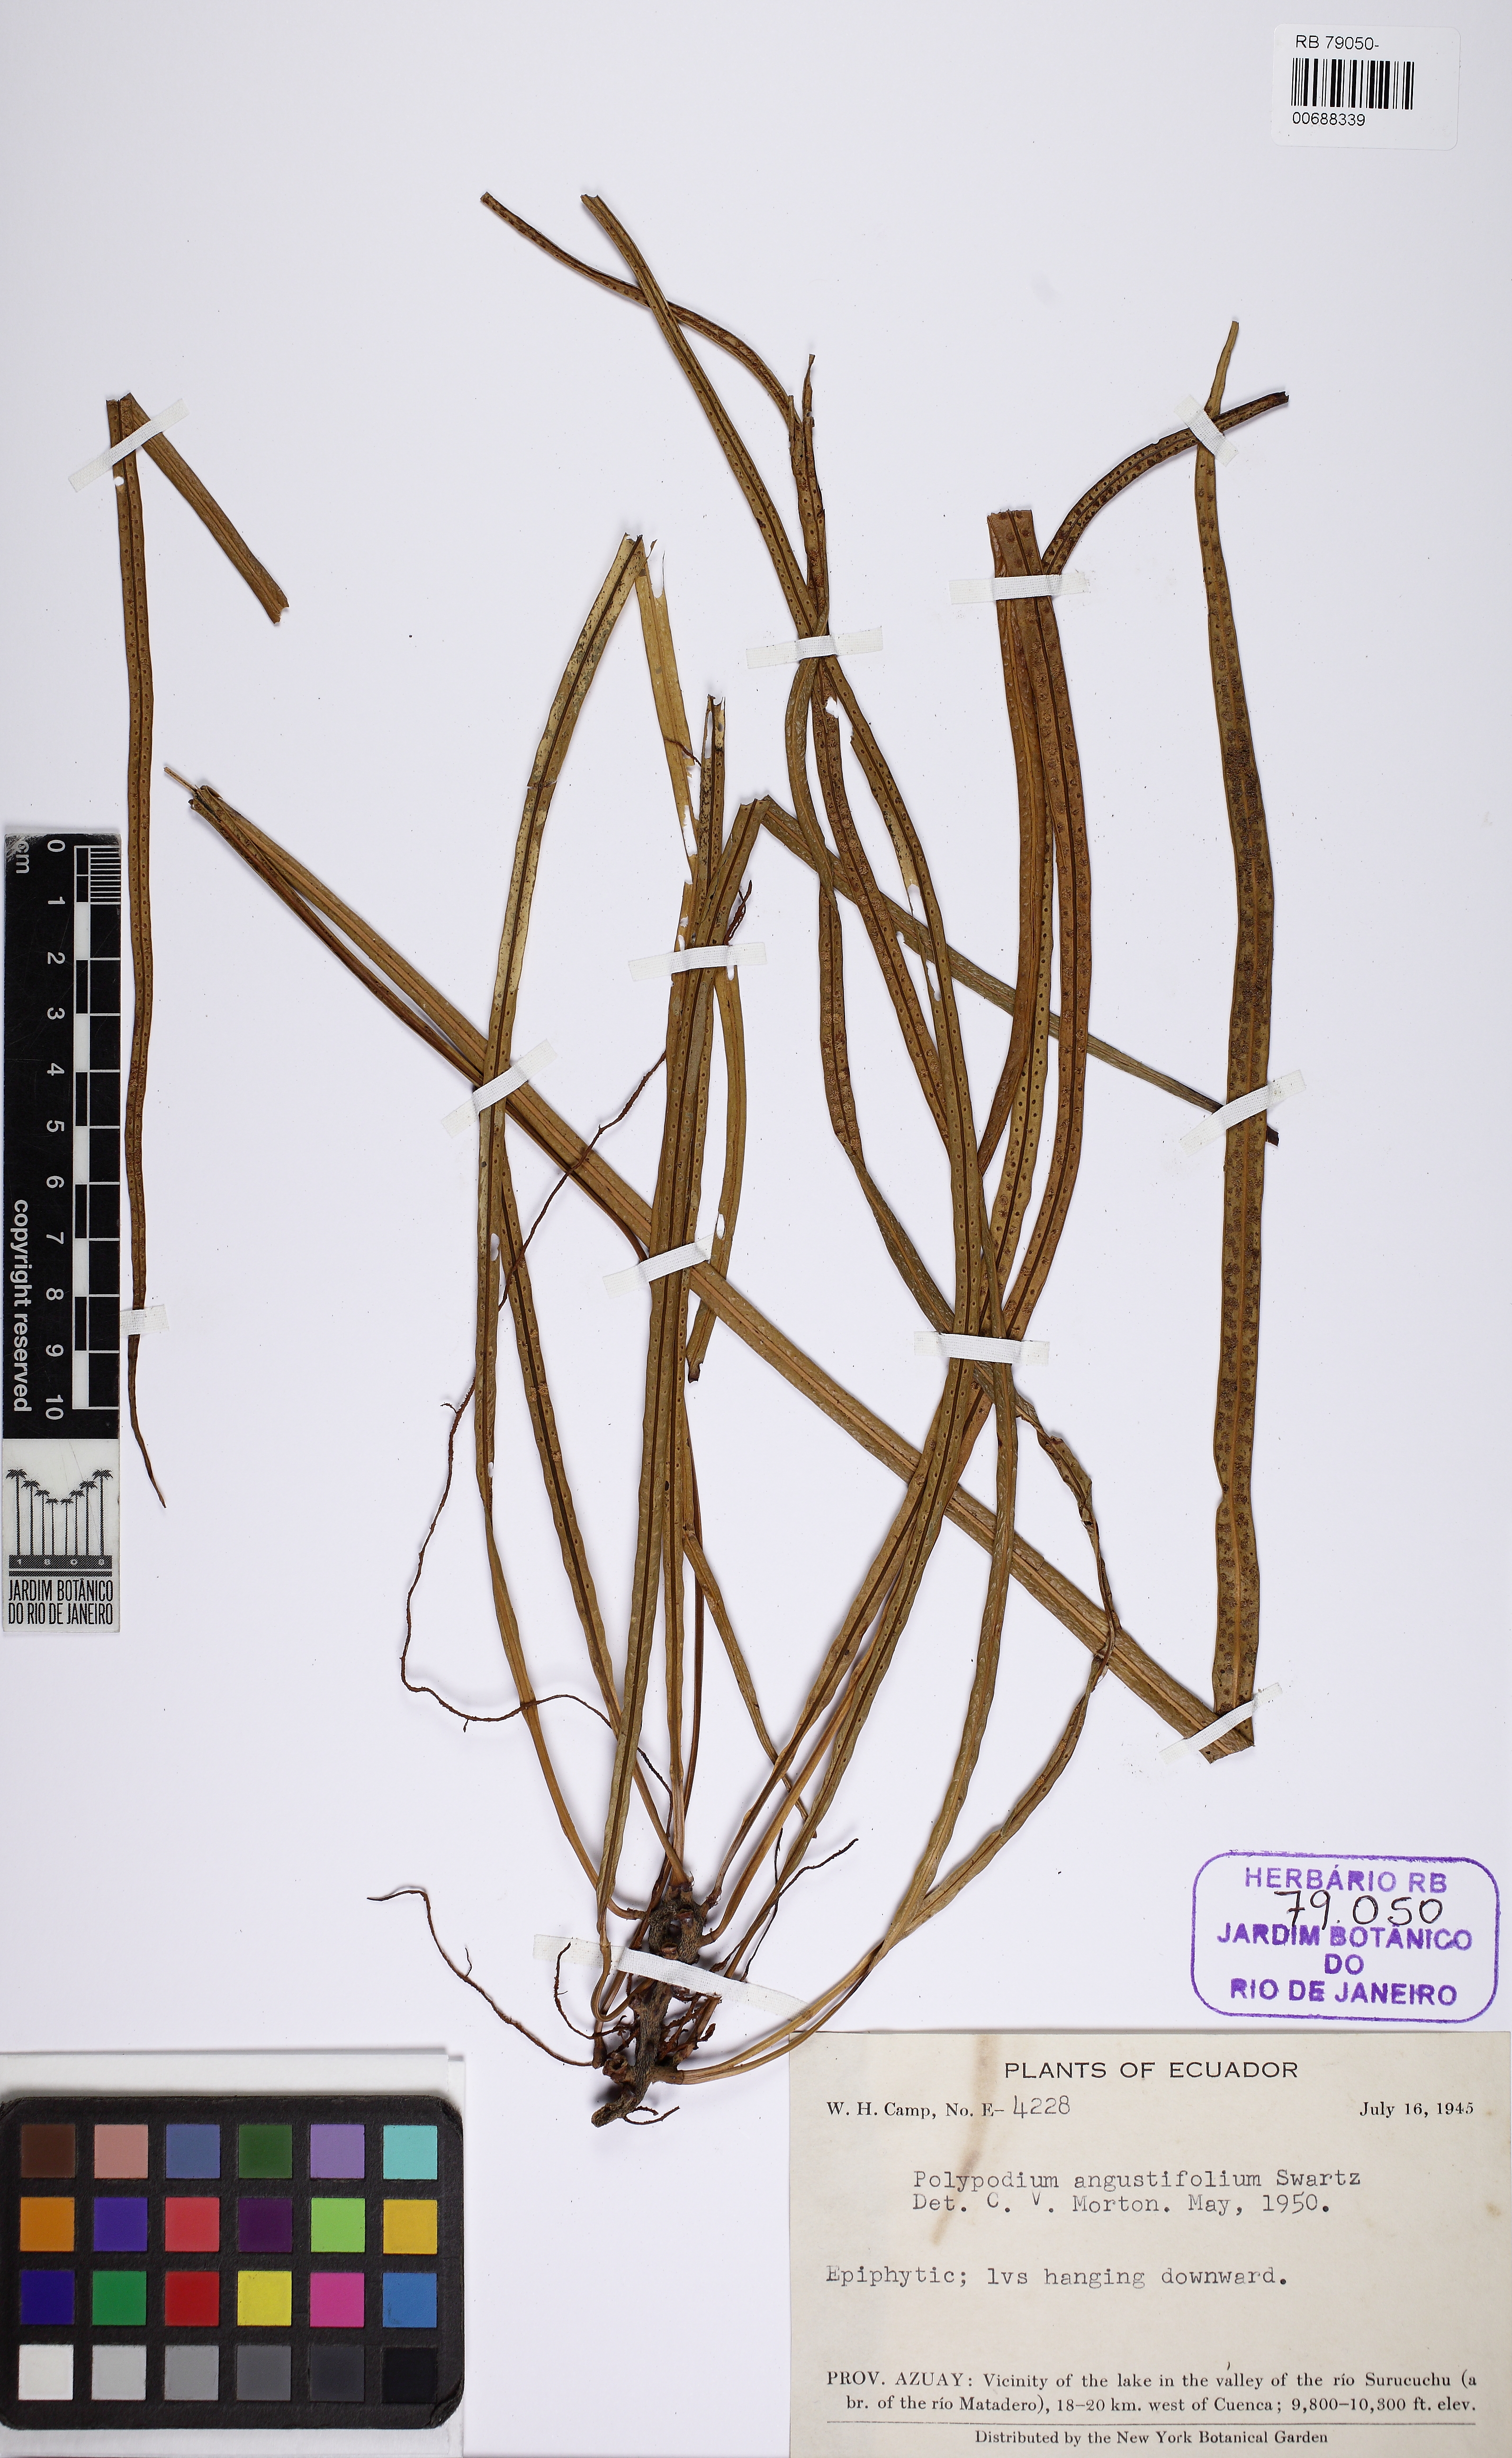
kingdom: Plantae
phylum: Tracheophyta
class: Polypodiopsida
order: Polypodiales
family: Polypodiaceae
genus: Campyloneurum
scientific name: Campyloneurum angustifolium
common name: Narrow-leaf strap fern
